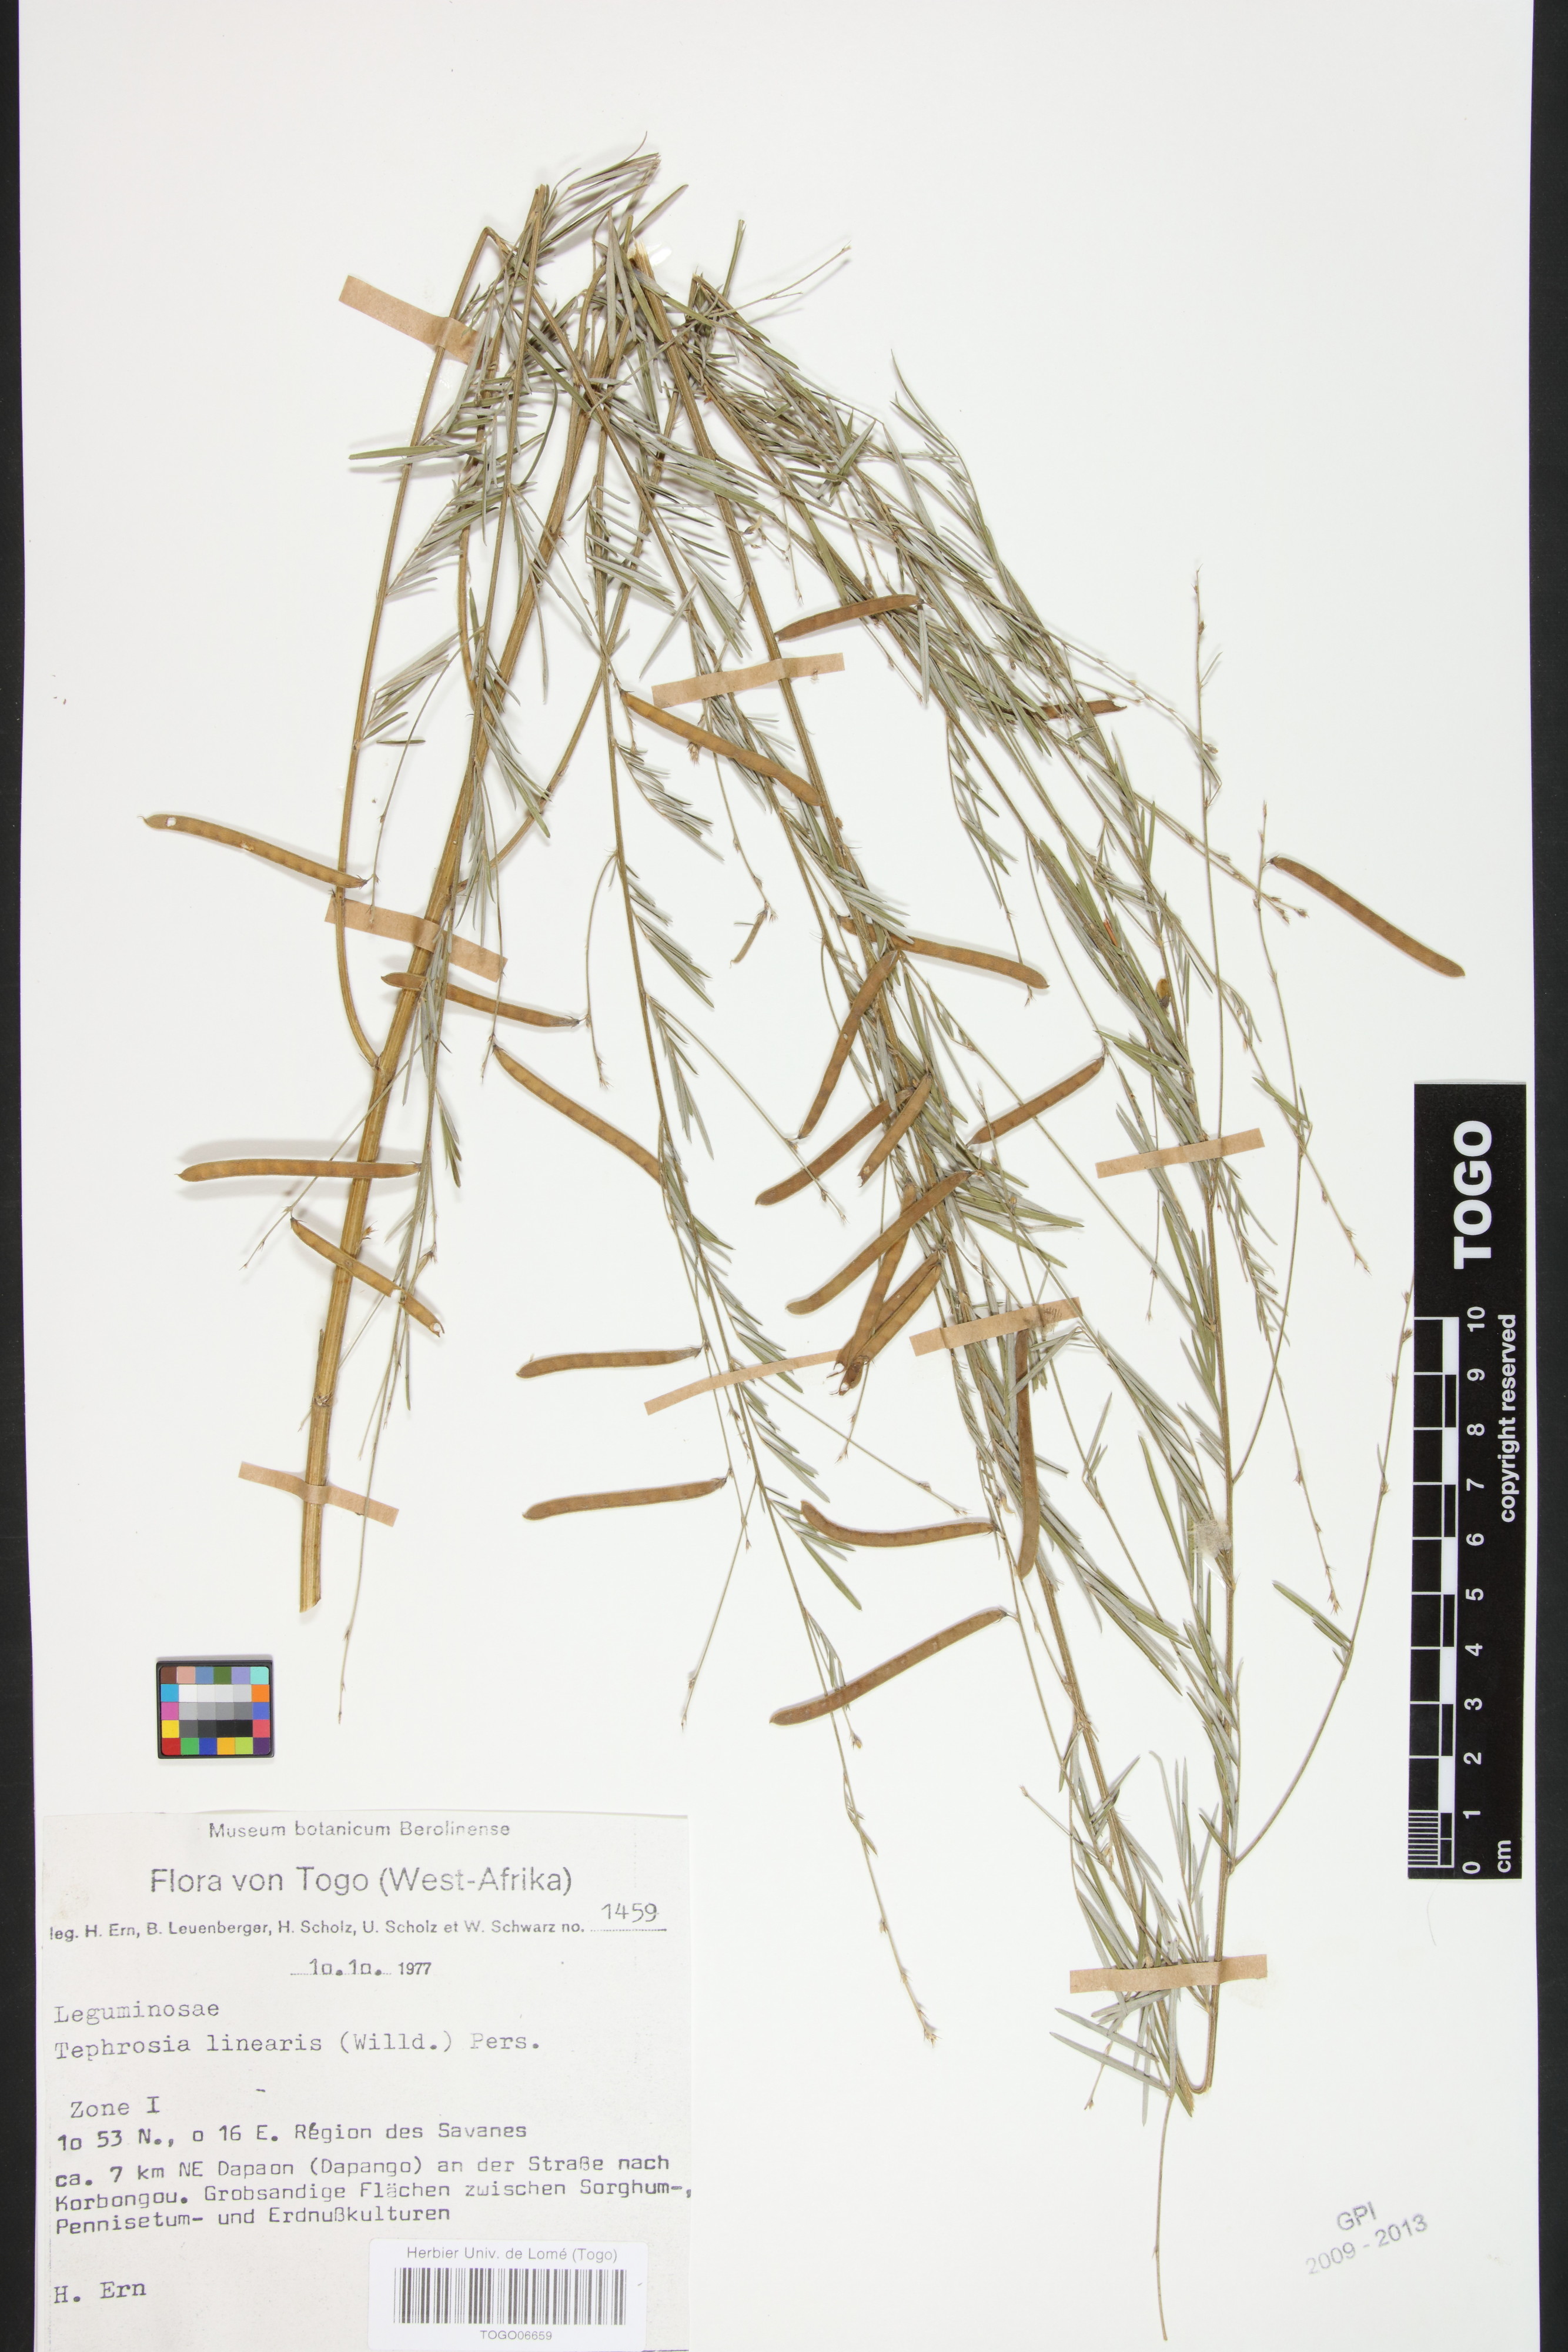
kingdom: Plantae
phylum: Tracheophyta
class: Magnoliopsida
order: Fabales
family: Fabaceae
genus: Tephrosia
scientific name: Tephrosia linearis
